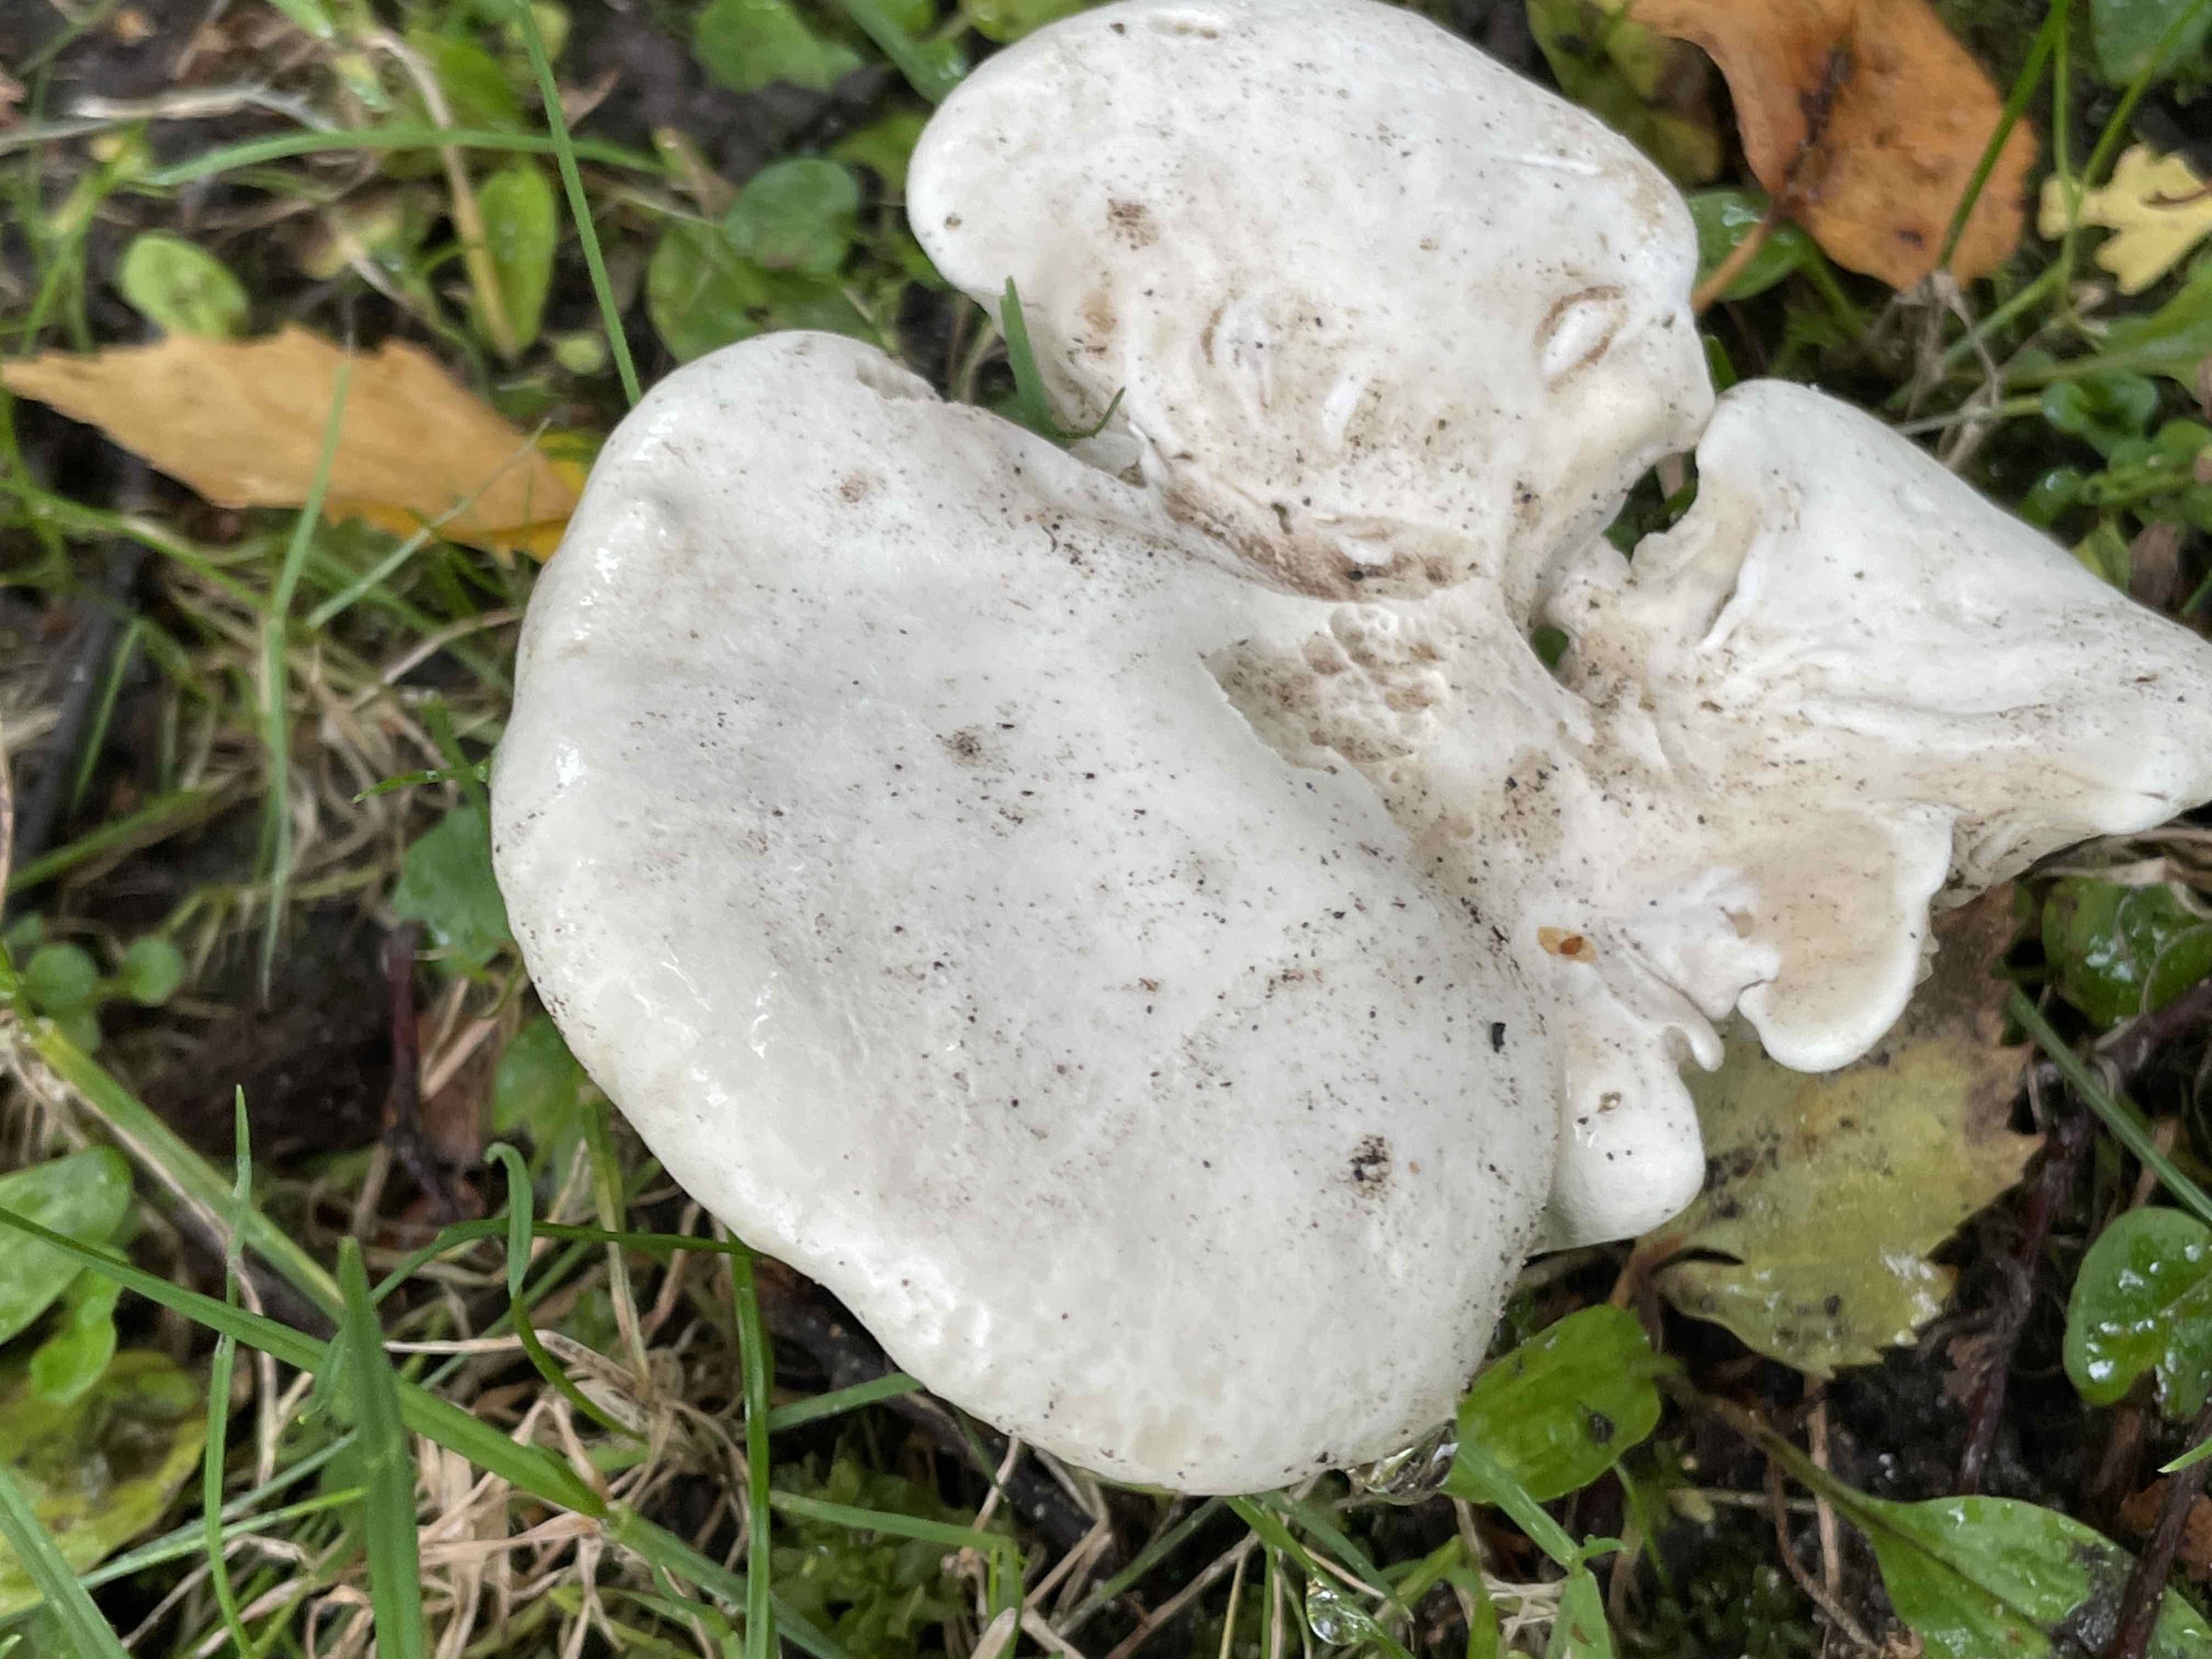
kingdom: Fungi
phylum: Basidiomycota
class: Agaricomycetes
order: Agaricales
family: Entolomataceae
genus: Clitopilus
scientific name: Clitopilus prunulus
